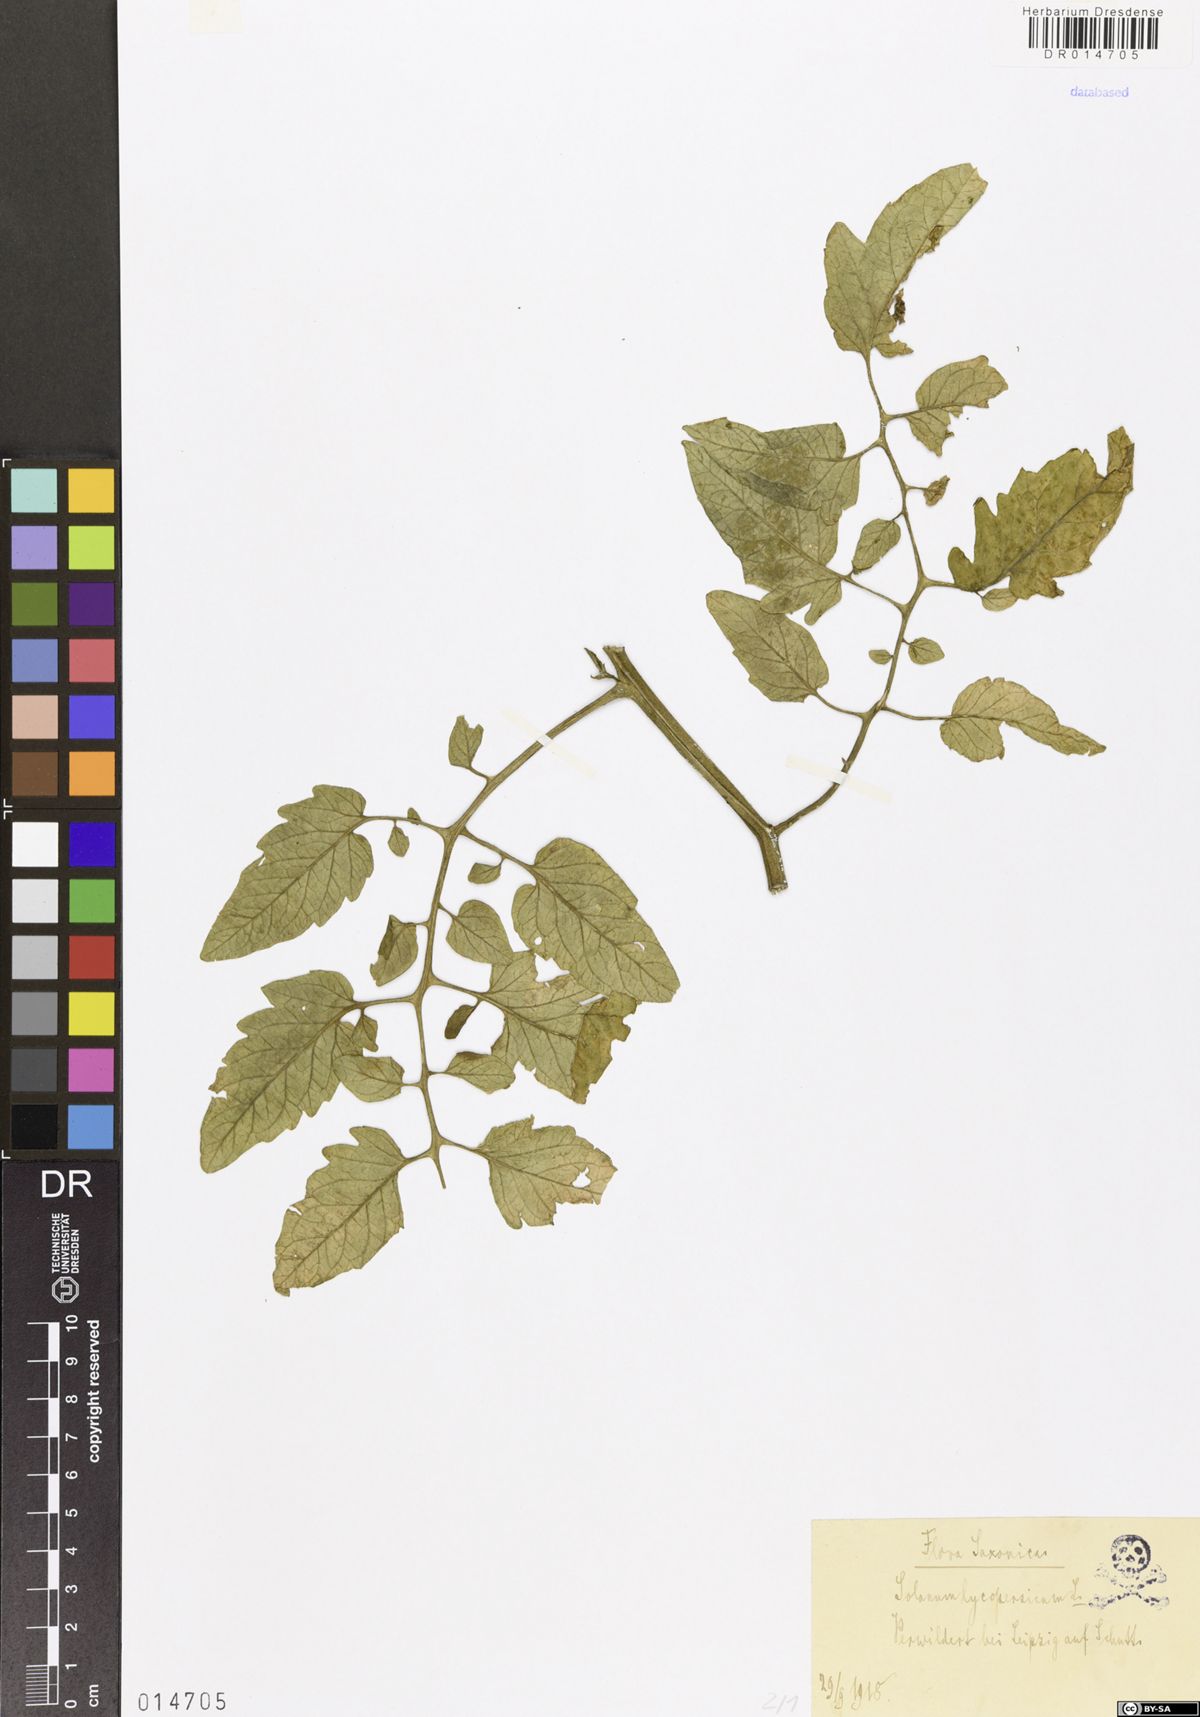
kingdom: Plantae
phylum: Tracheophyta
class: Magnoliopsida
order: Solanales
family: Solanaceae
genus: Solanum
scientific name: Solanum
